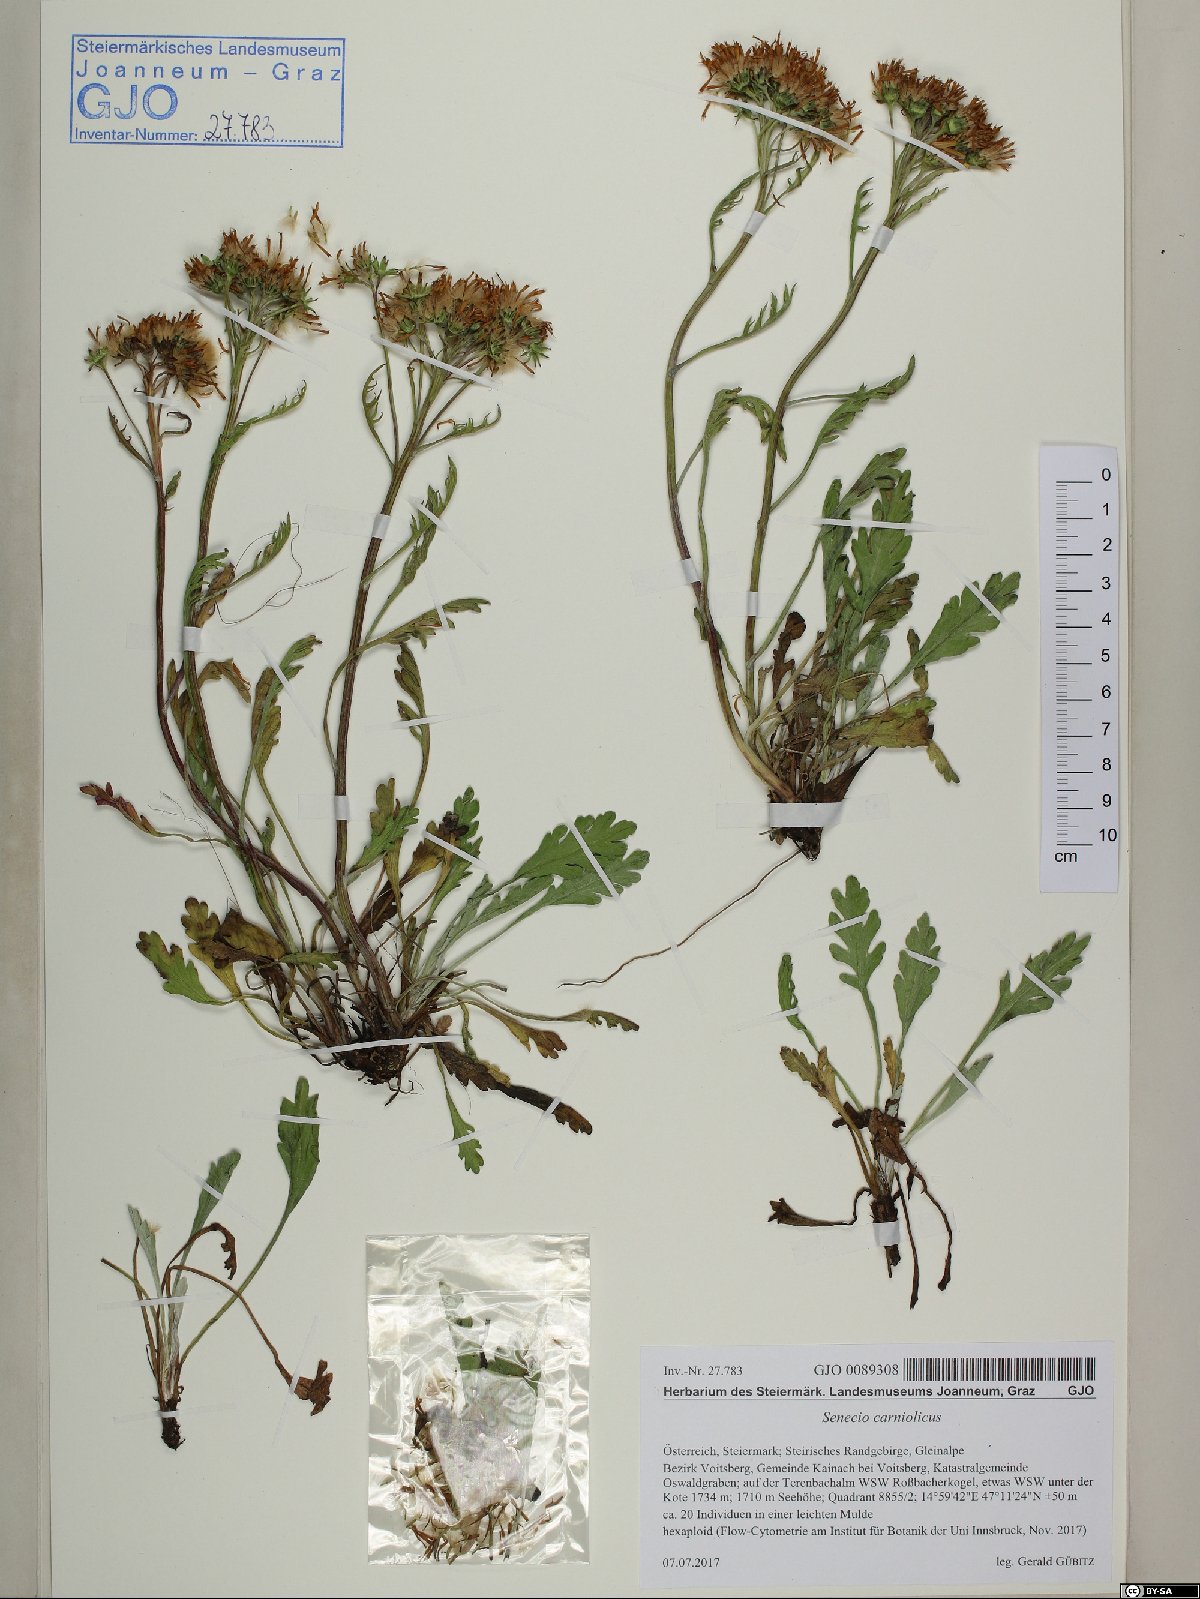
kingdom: Plantae
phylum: Tracheophyta
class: Magnoliopsida
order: Asterales
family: Asteraceae
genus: Jacobaea
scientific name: Jacobaea carniolica
